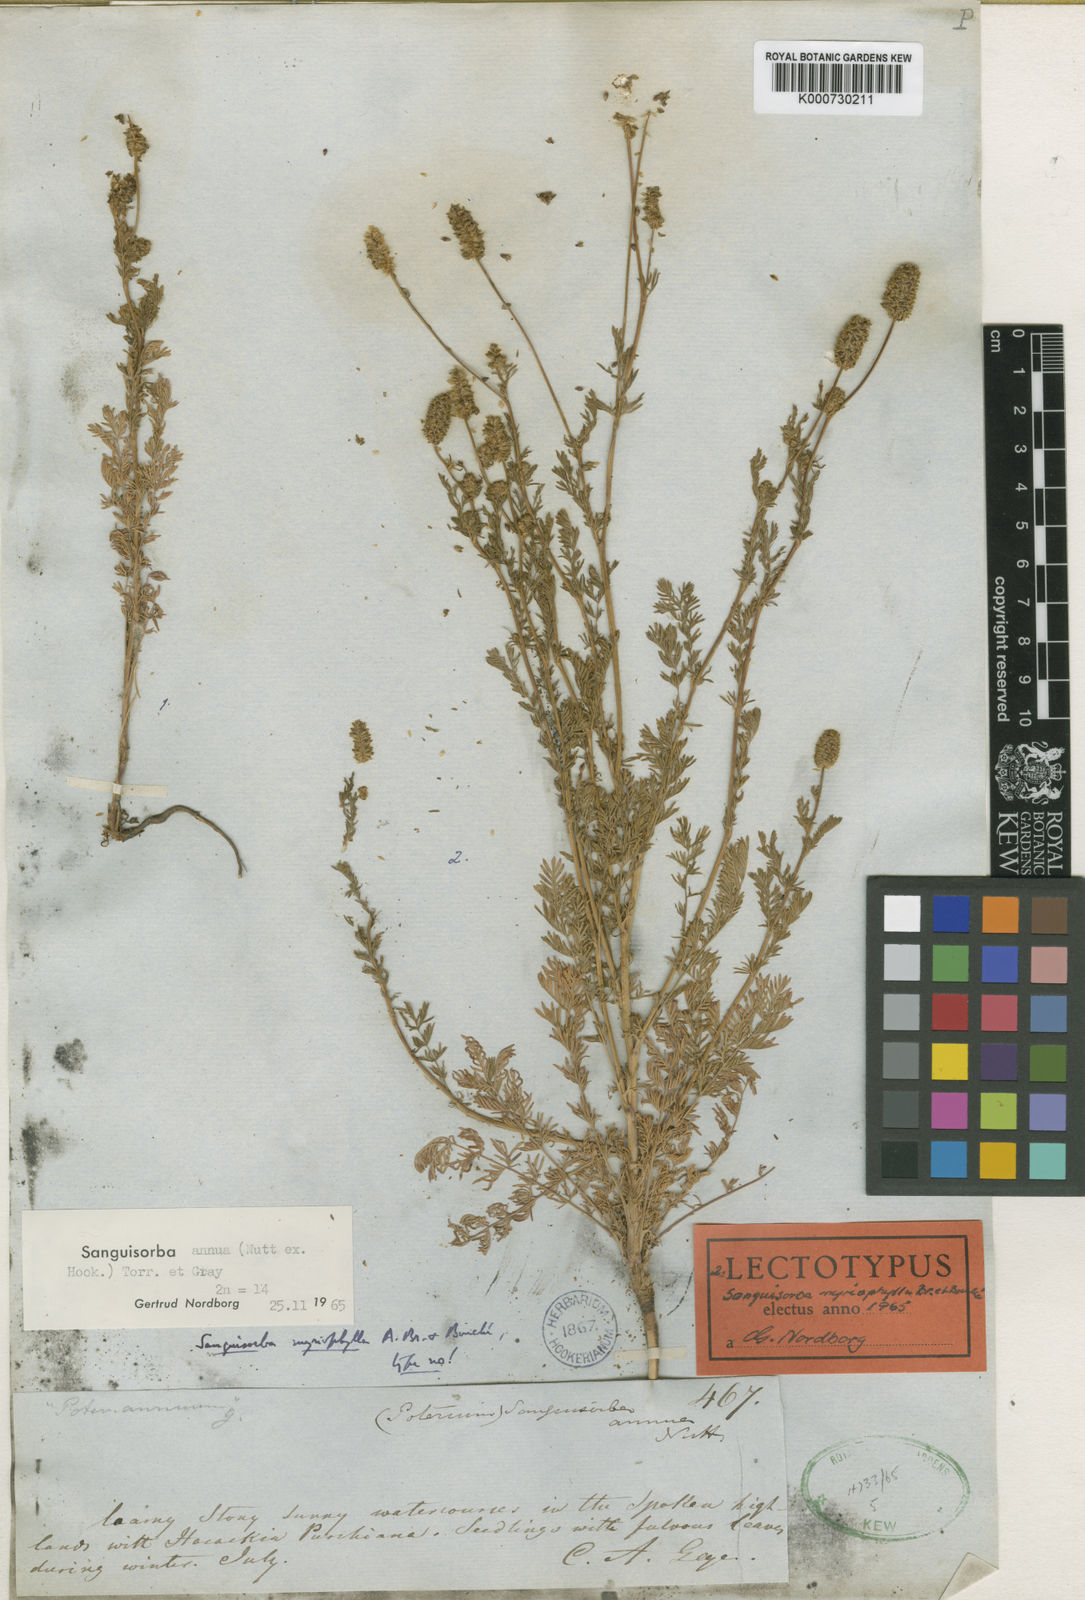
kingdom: Plantae
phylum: Tracheophyta
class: Magnoliopsida
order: Rosales
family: Rosaceae
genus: Sanguisorba
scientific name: Sanguisorba
